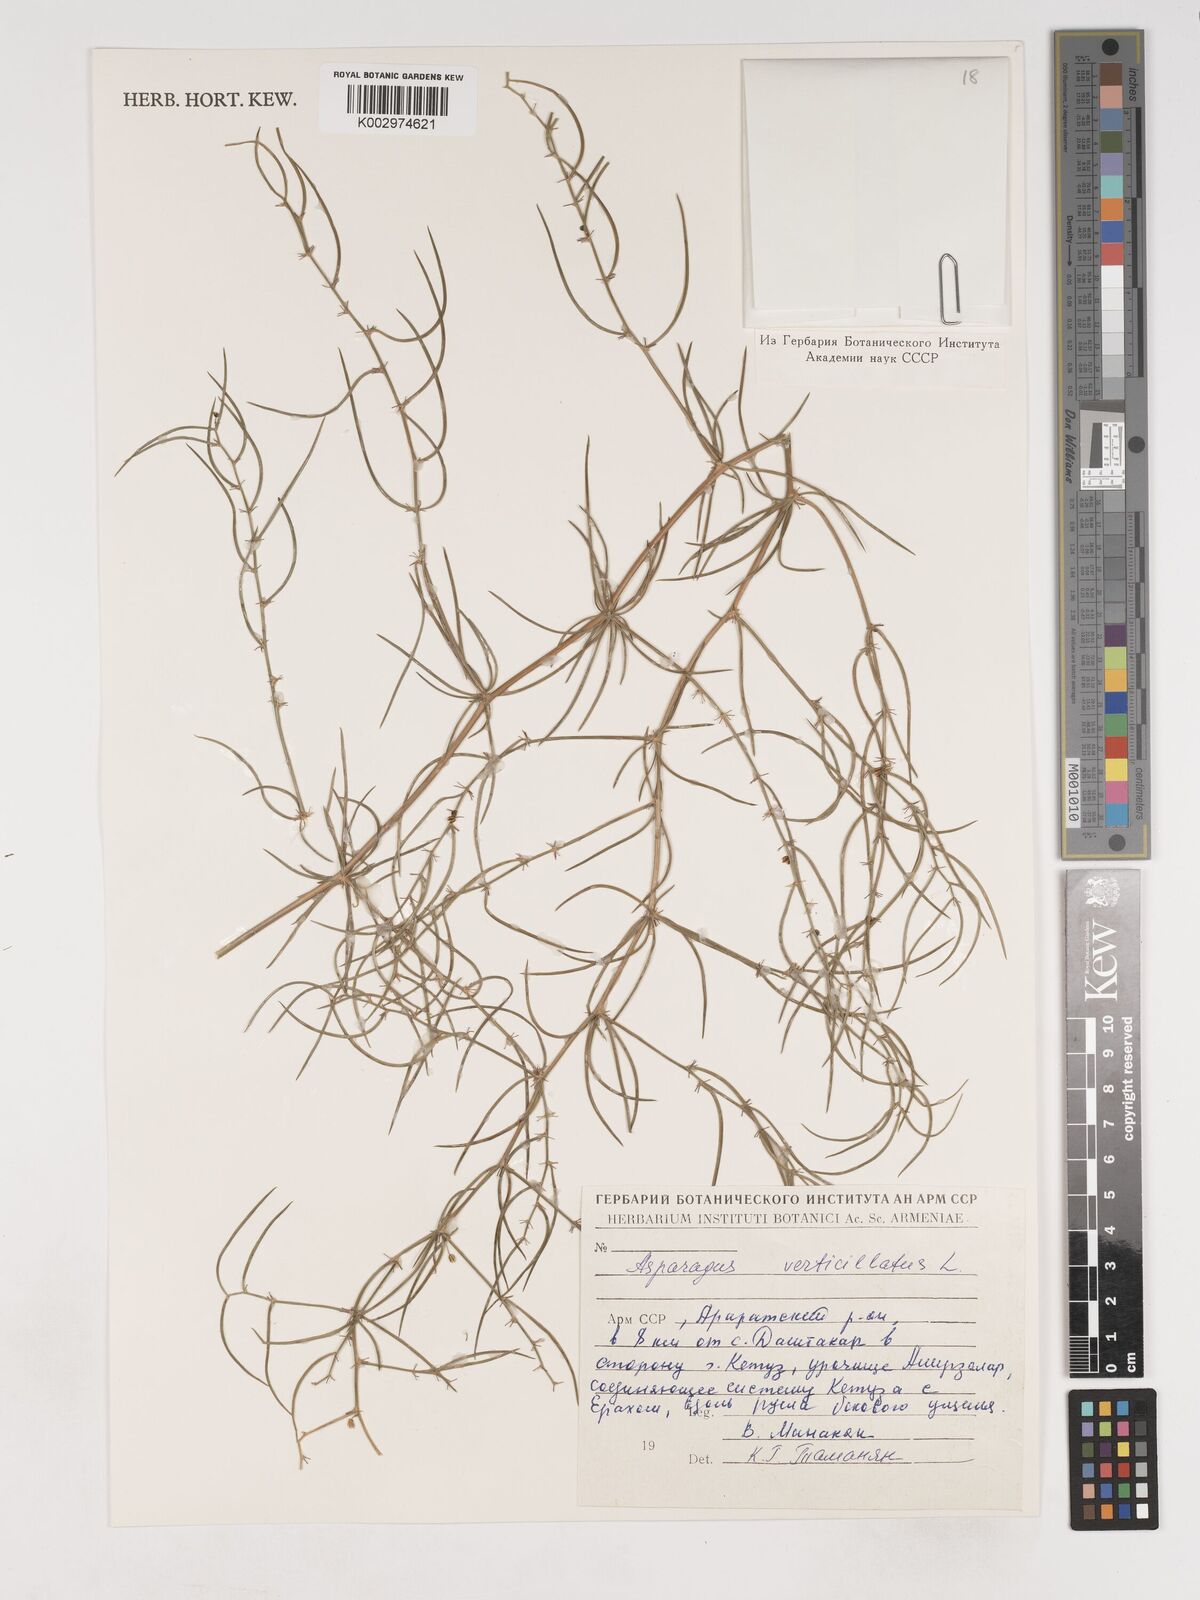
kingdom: Plantae
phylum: Tracheophyta
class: Liliopsida
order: Asparagales
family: Asparagaceae
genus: Asparagus
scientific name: Asparagus verticillatus
